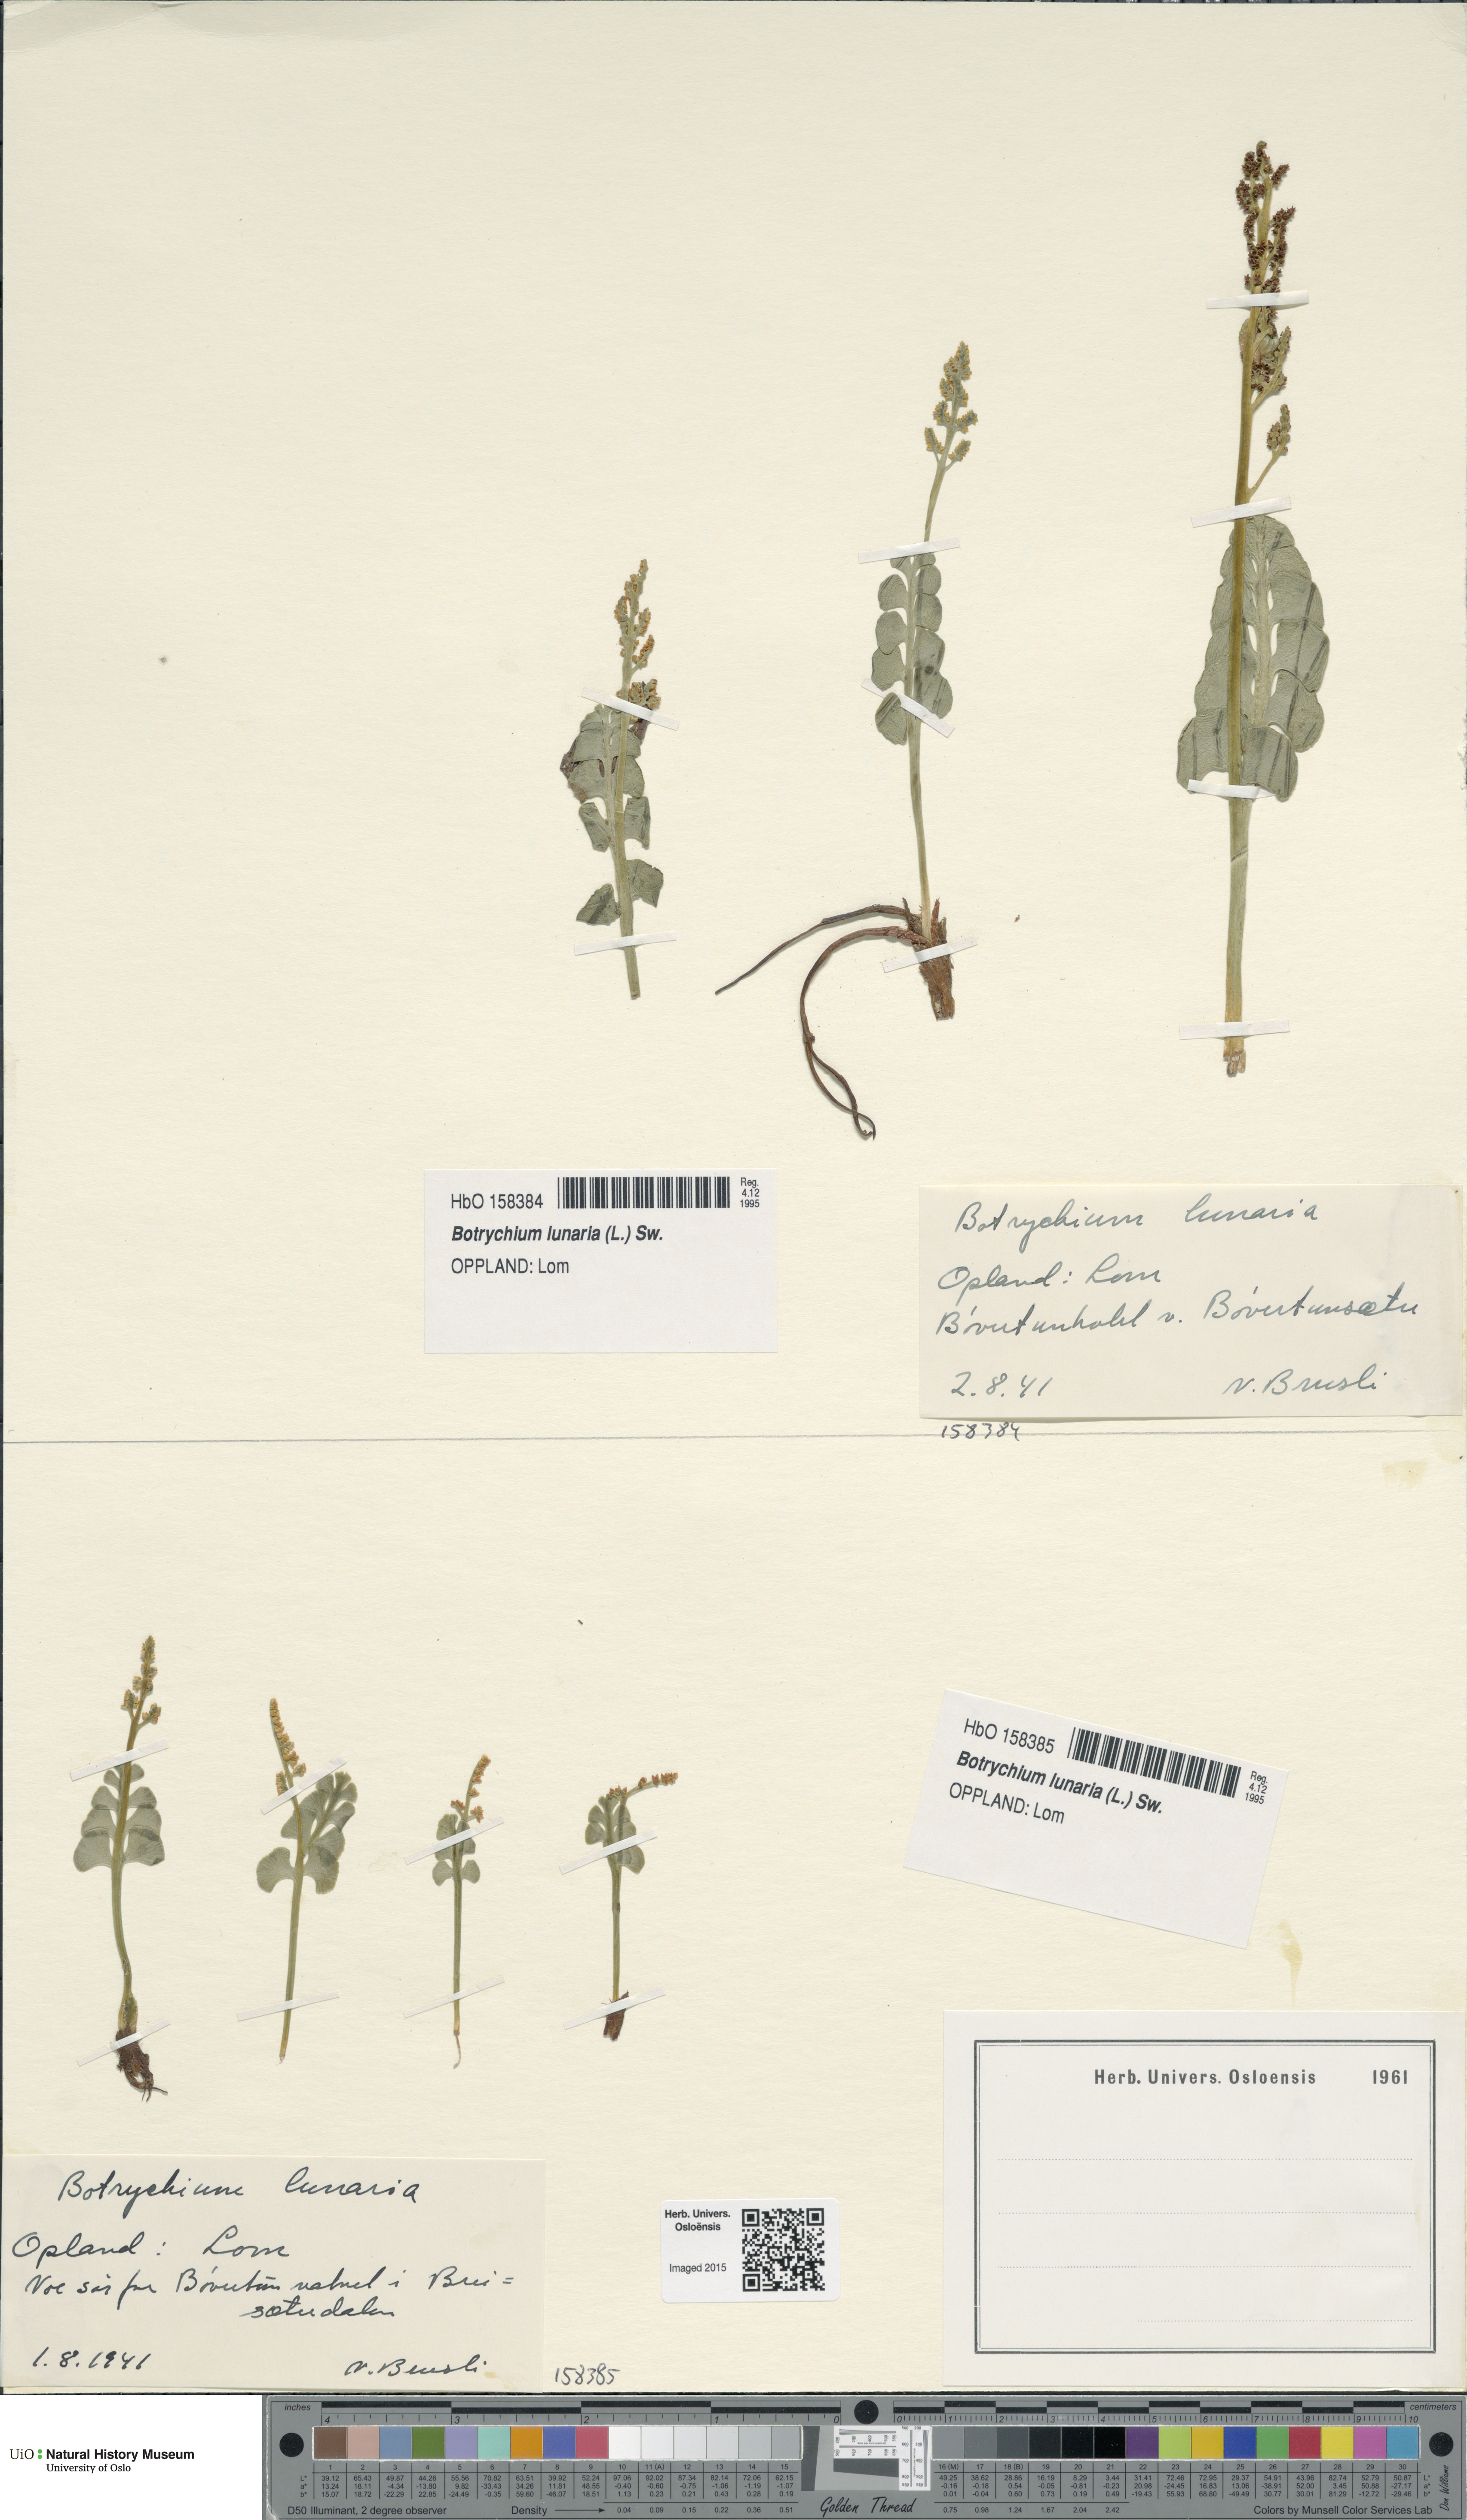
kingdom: Plantae
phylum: Tracheophyta
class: Polypodiopsida
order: Ophioglossales
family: Ophioglossaceae
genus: Botrychium
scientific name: Botrychium lunaria
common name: Moonwort
